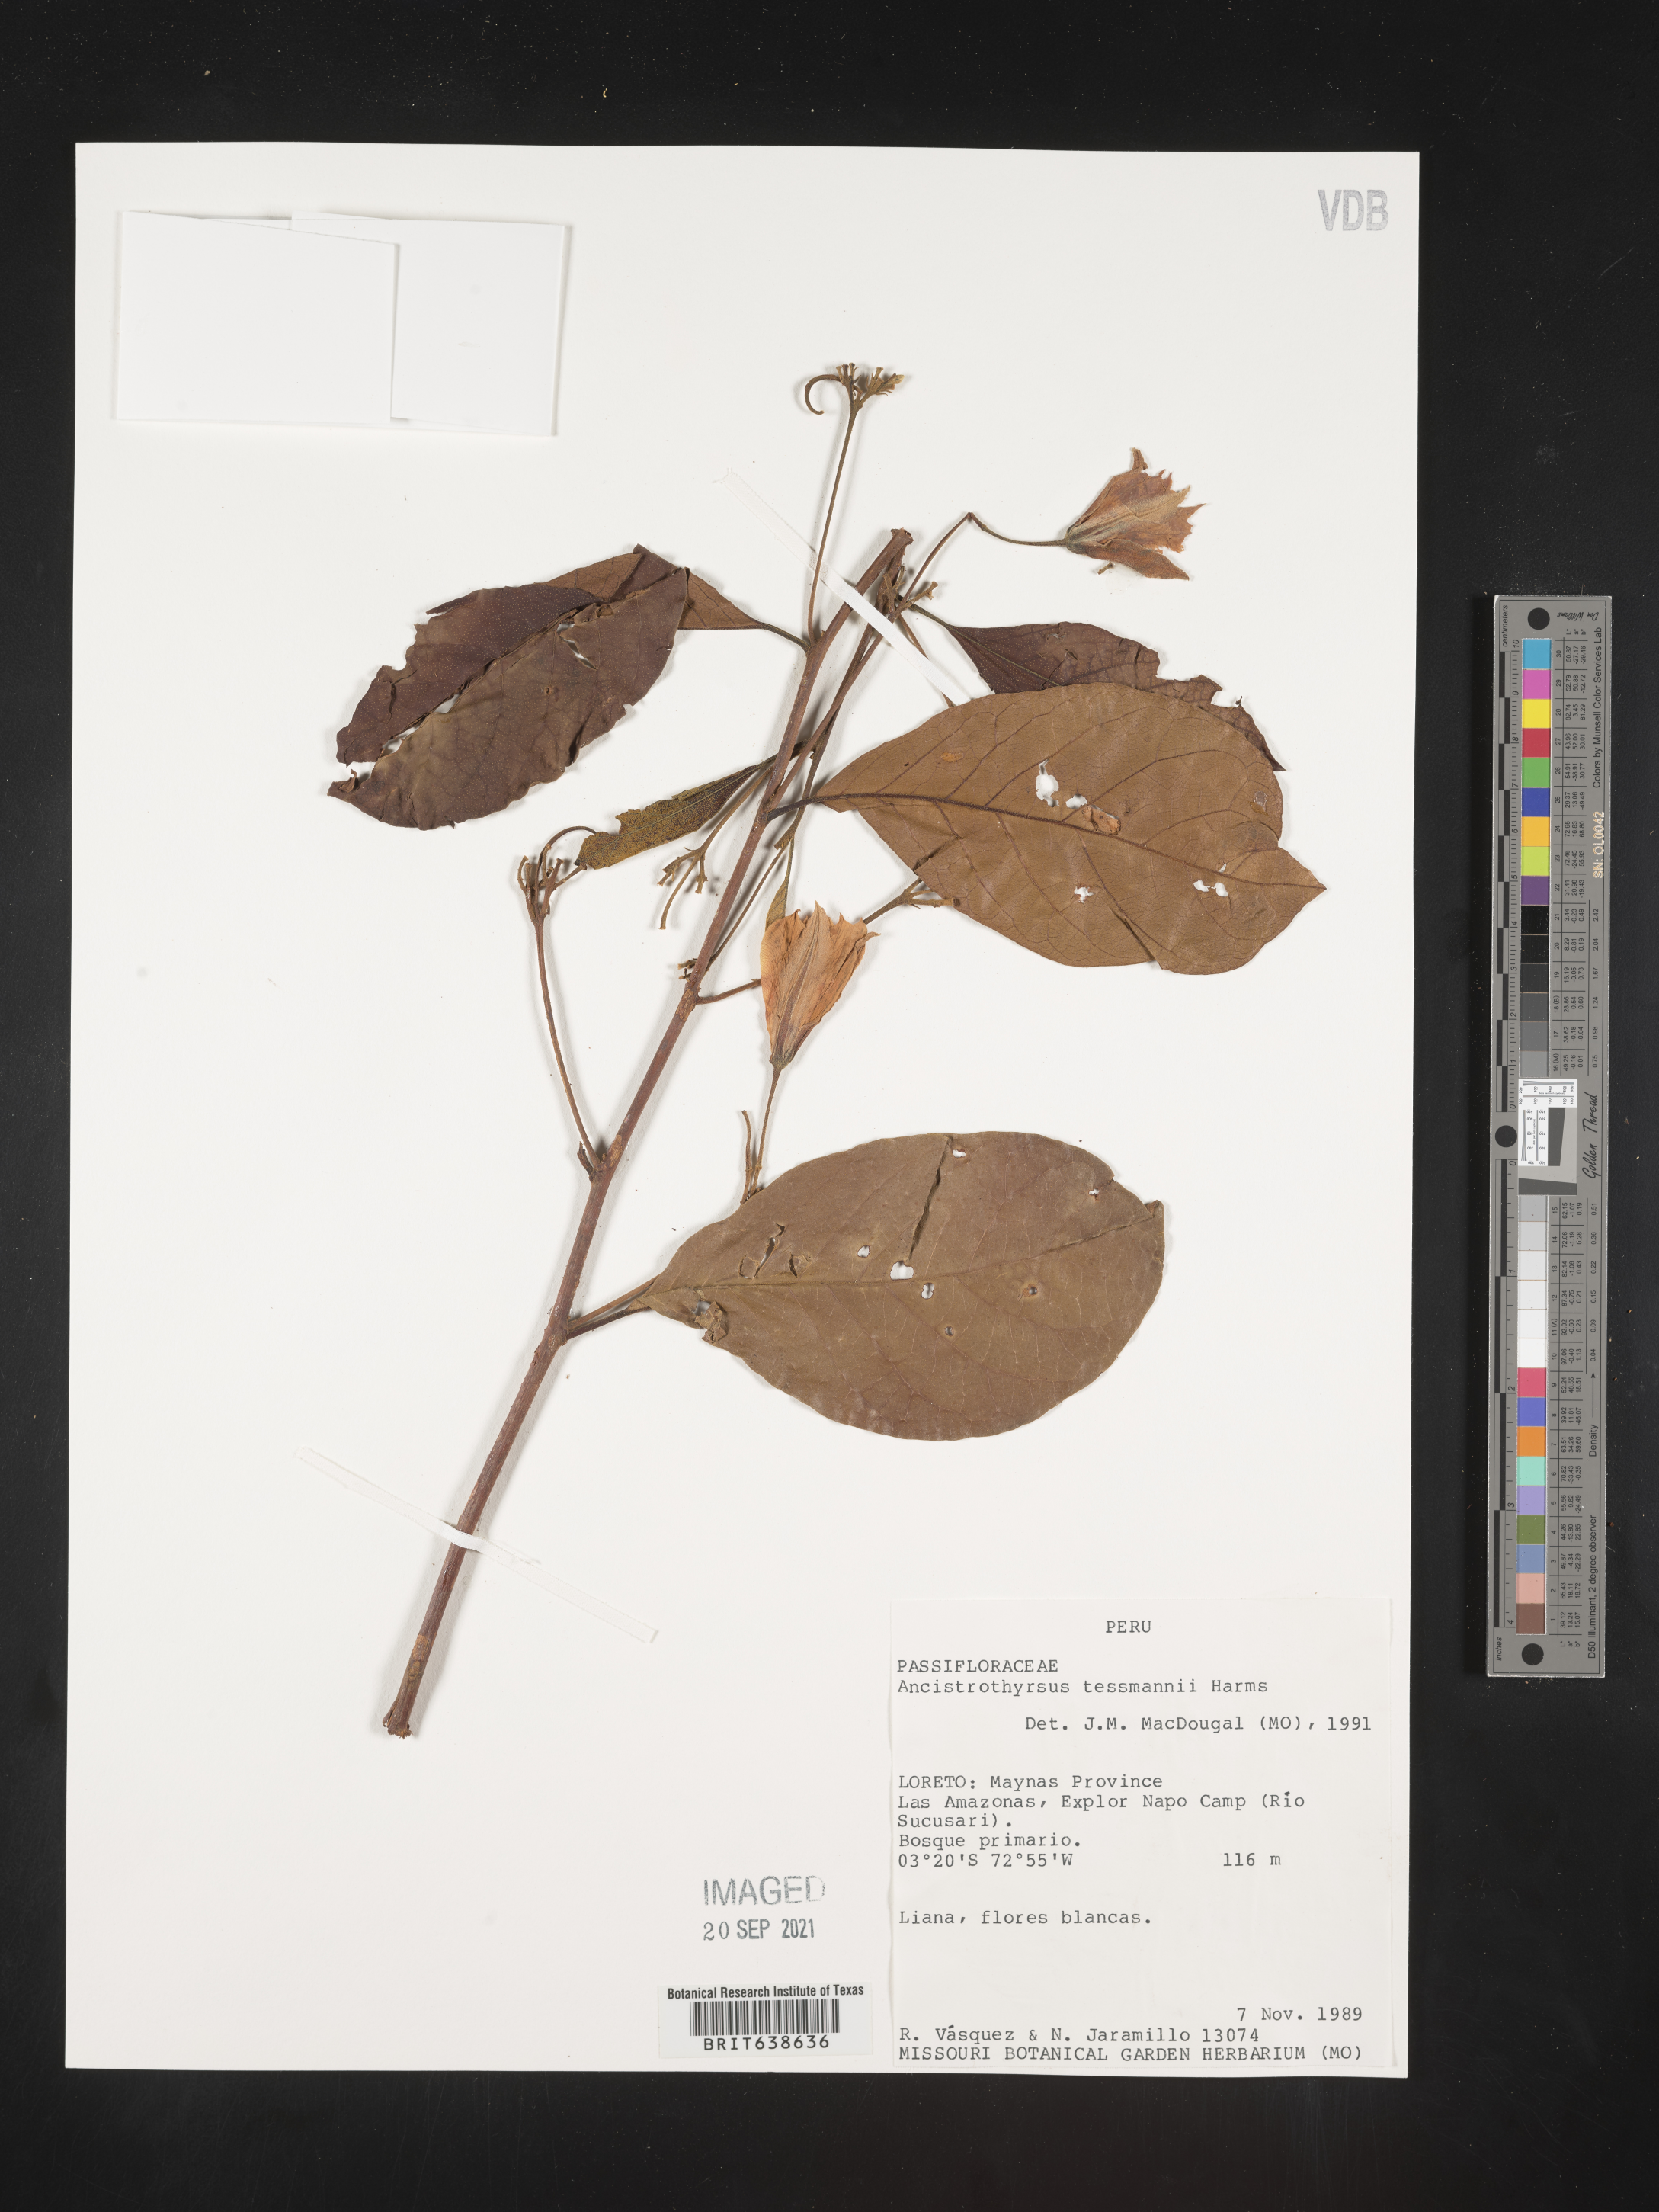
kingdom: Plantae
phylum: Tracheophyta
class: Magnoliopsida
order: Malpighiales
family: Passifloraceae
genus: Ancistrothyrsus
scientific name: Ancistrothyrsus tessmannii
